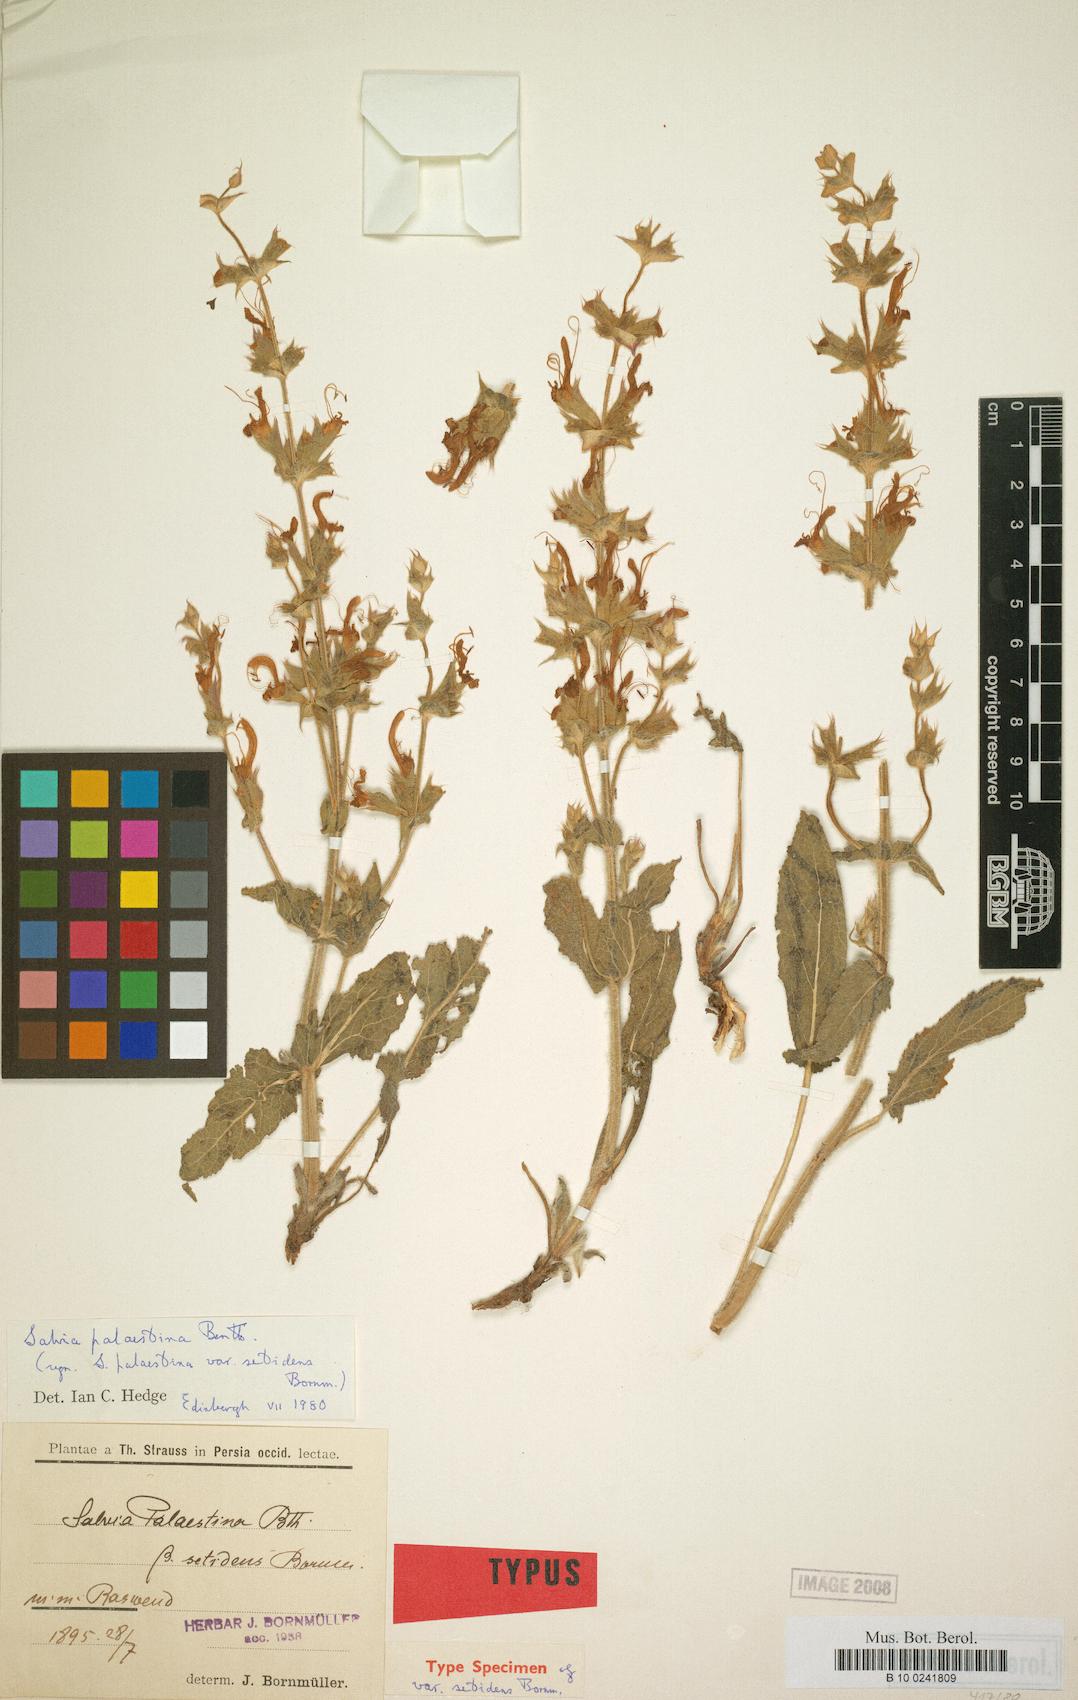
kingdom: Plantae
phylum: Tracheophyta
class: Magnoliopsida
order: Lamiales
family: Lamiaceae
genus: Salvia
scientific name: Salvia palaestina
